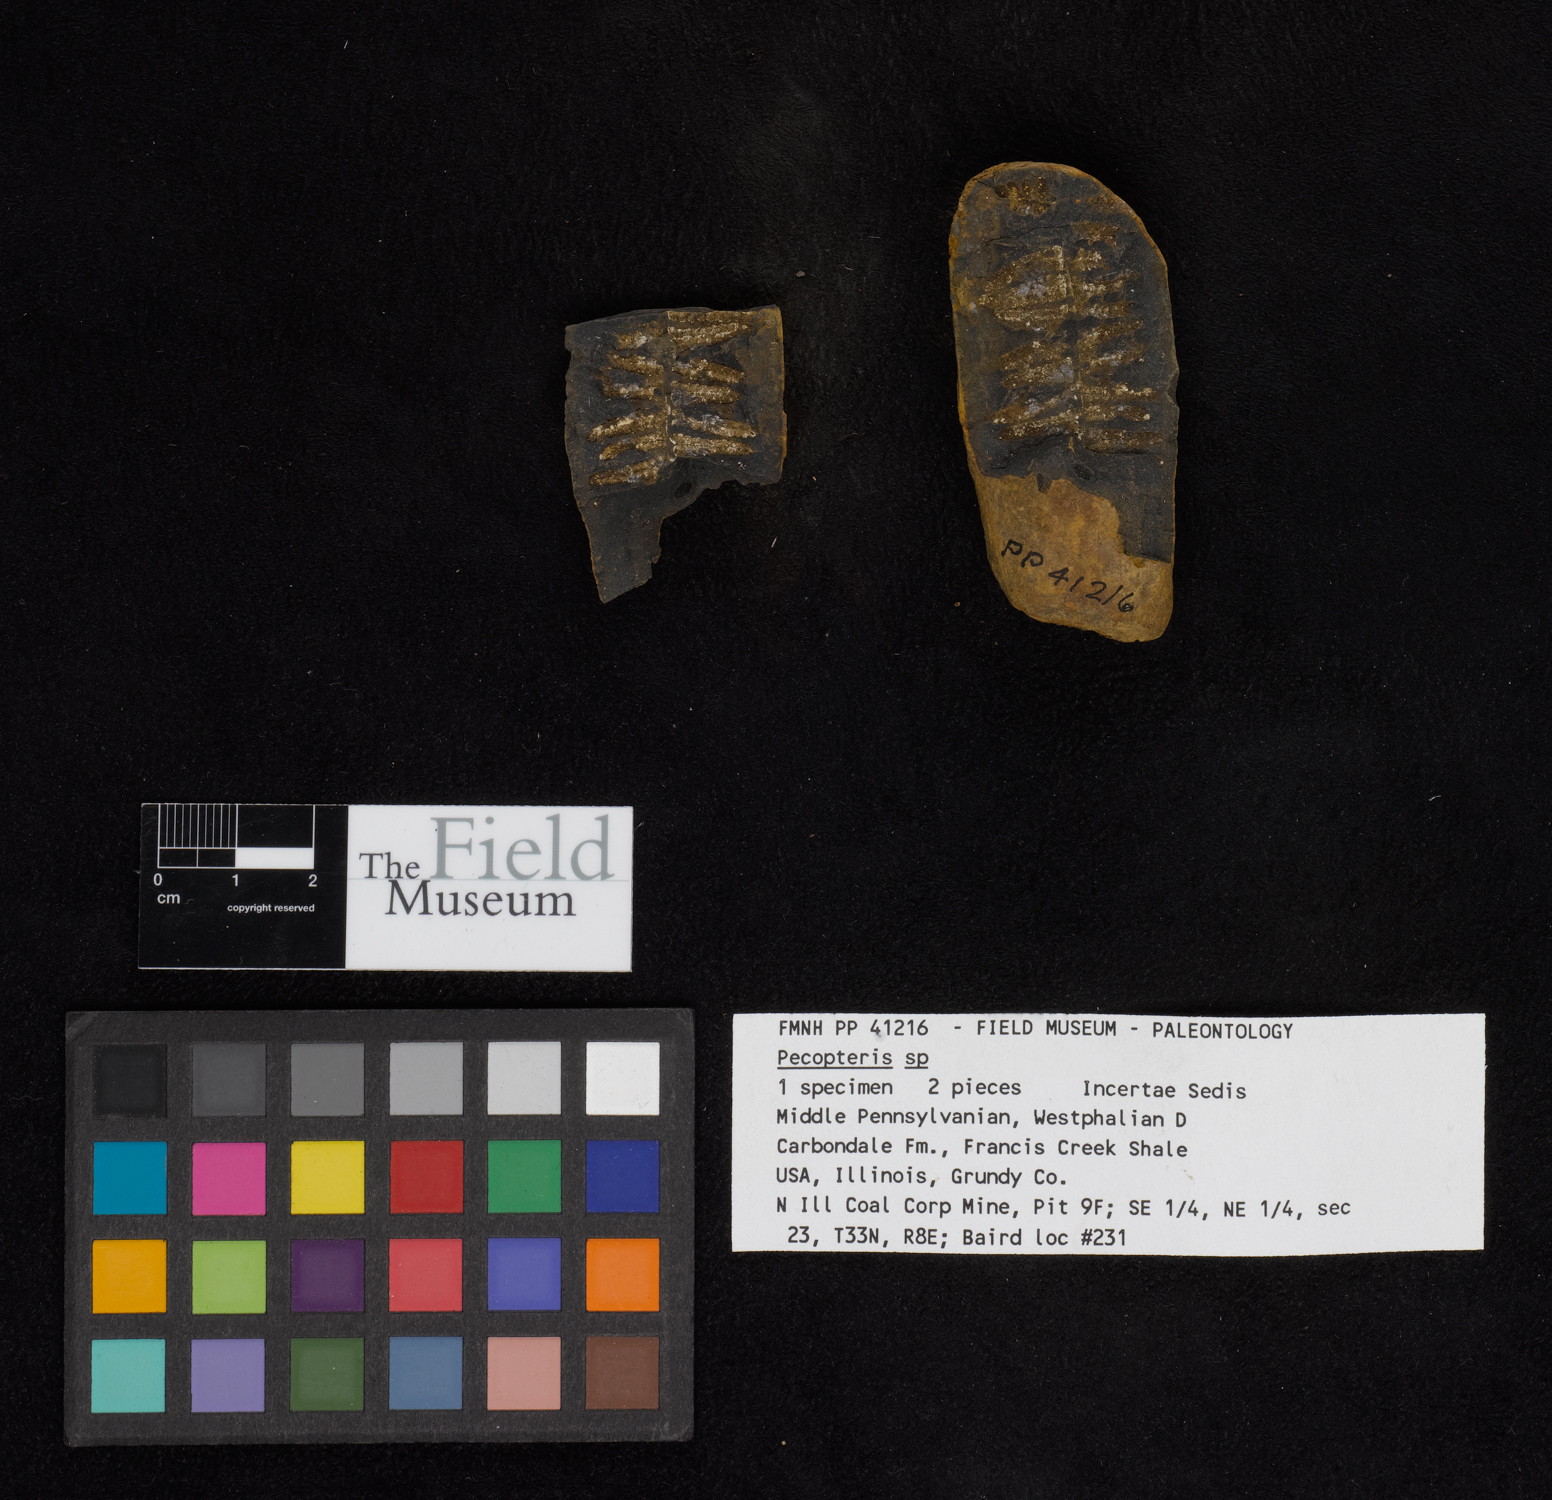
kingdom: Plantae
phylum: Tracheophyta
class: Polypodiopsida
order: Marattiales
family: Asterothecaceae
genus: Pecopteris
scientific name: Pecopteris
